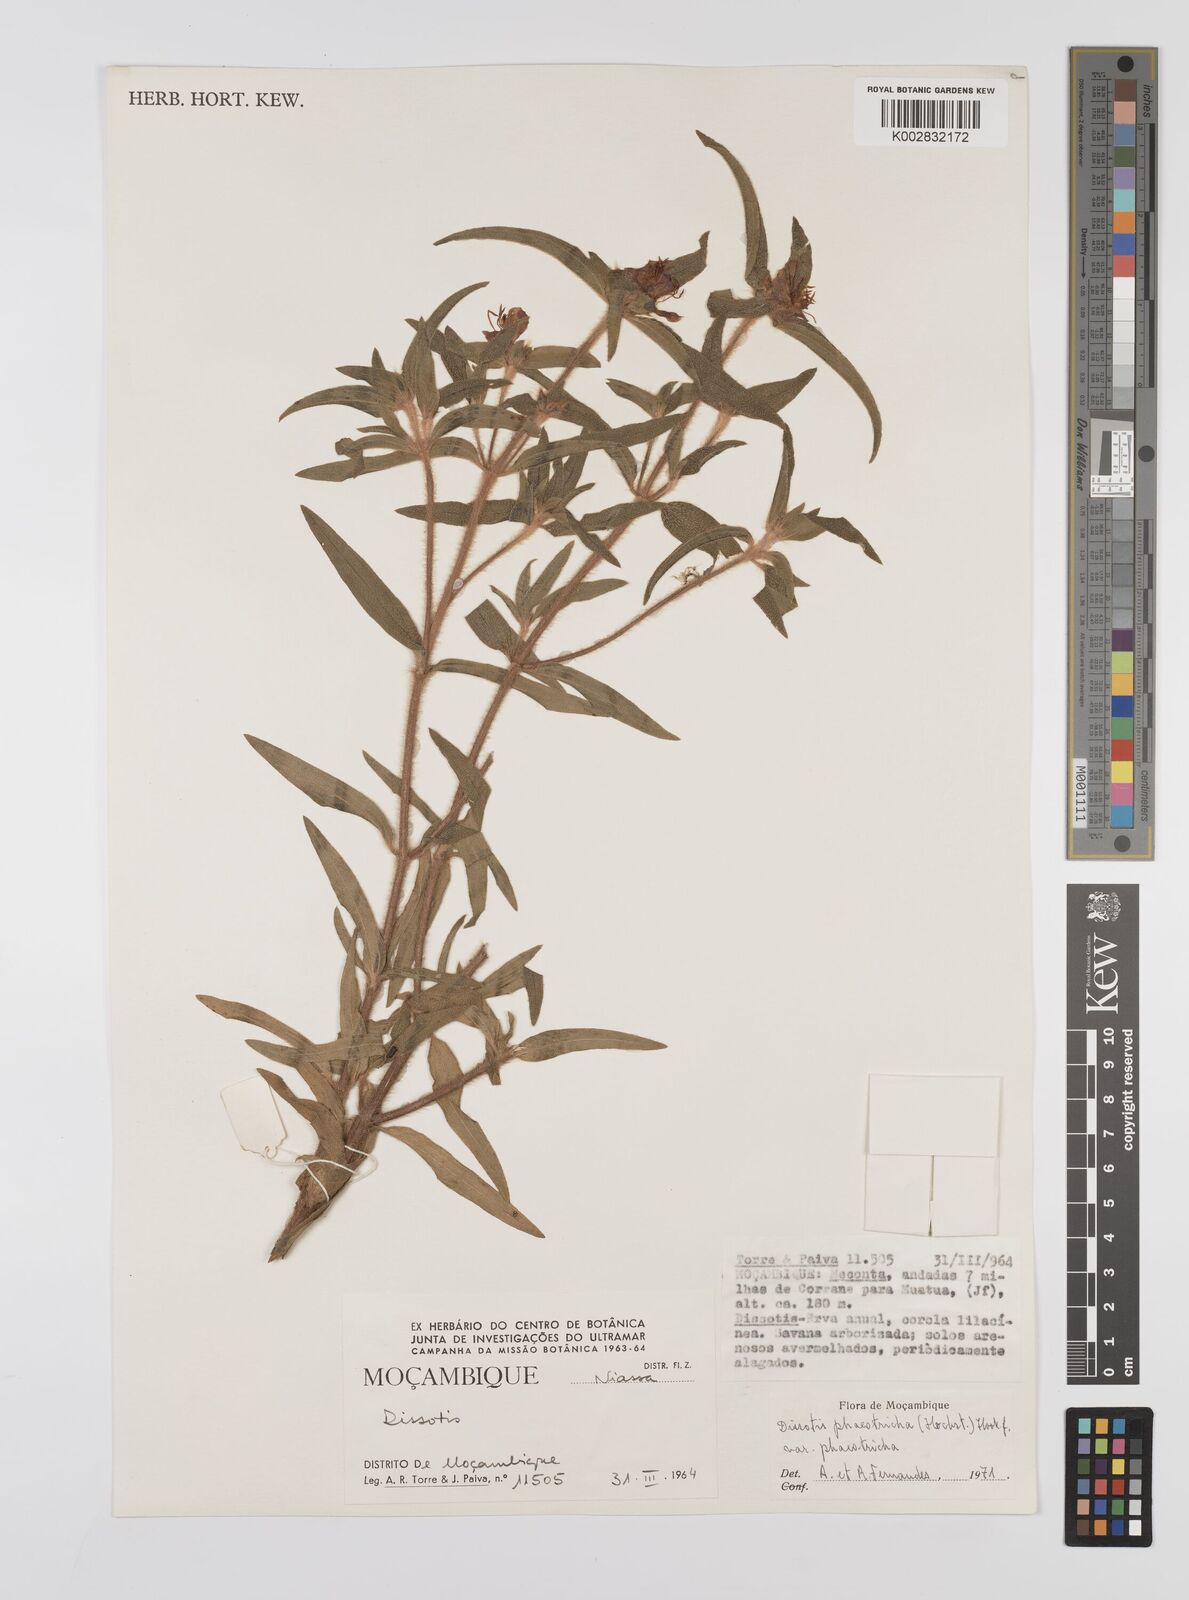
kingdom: Plantae
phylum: Tracheophyta
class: Magnoliopsida
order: Myrtales
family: Melastomataceae
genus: Antherotoma
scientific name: Antherotoma phaeotricha
